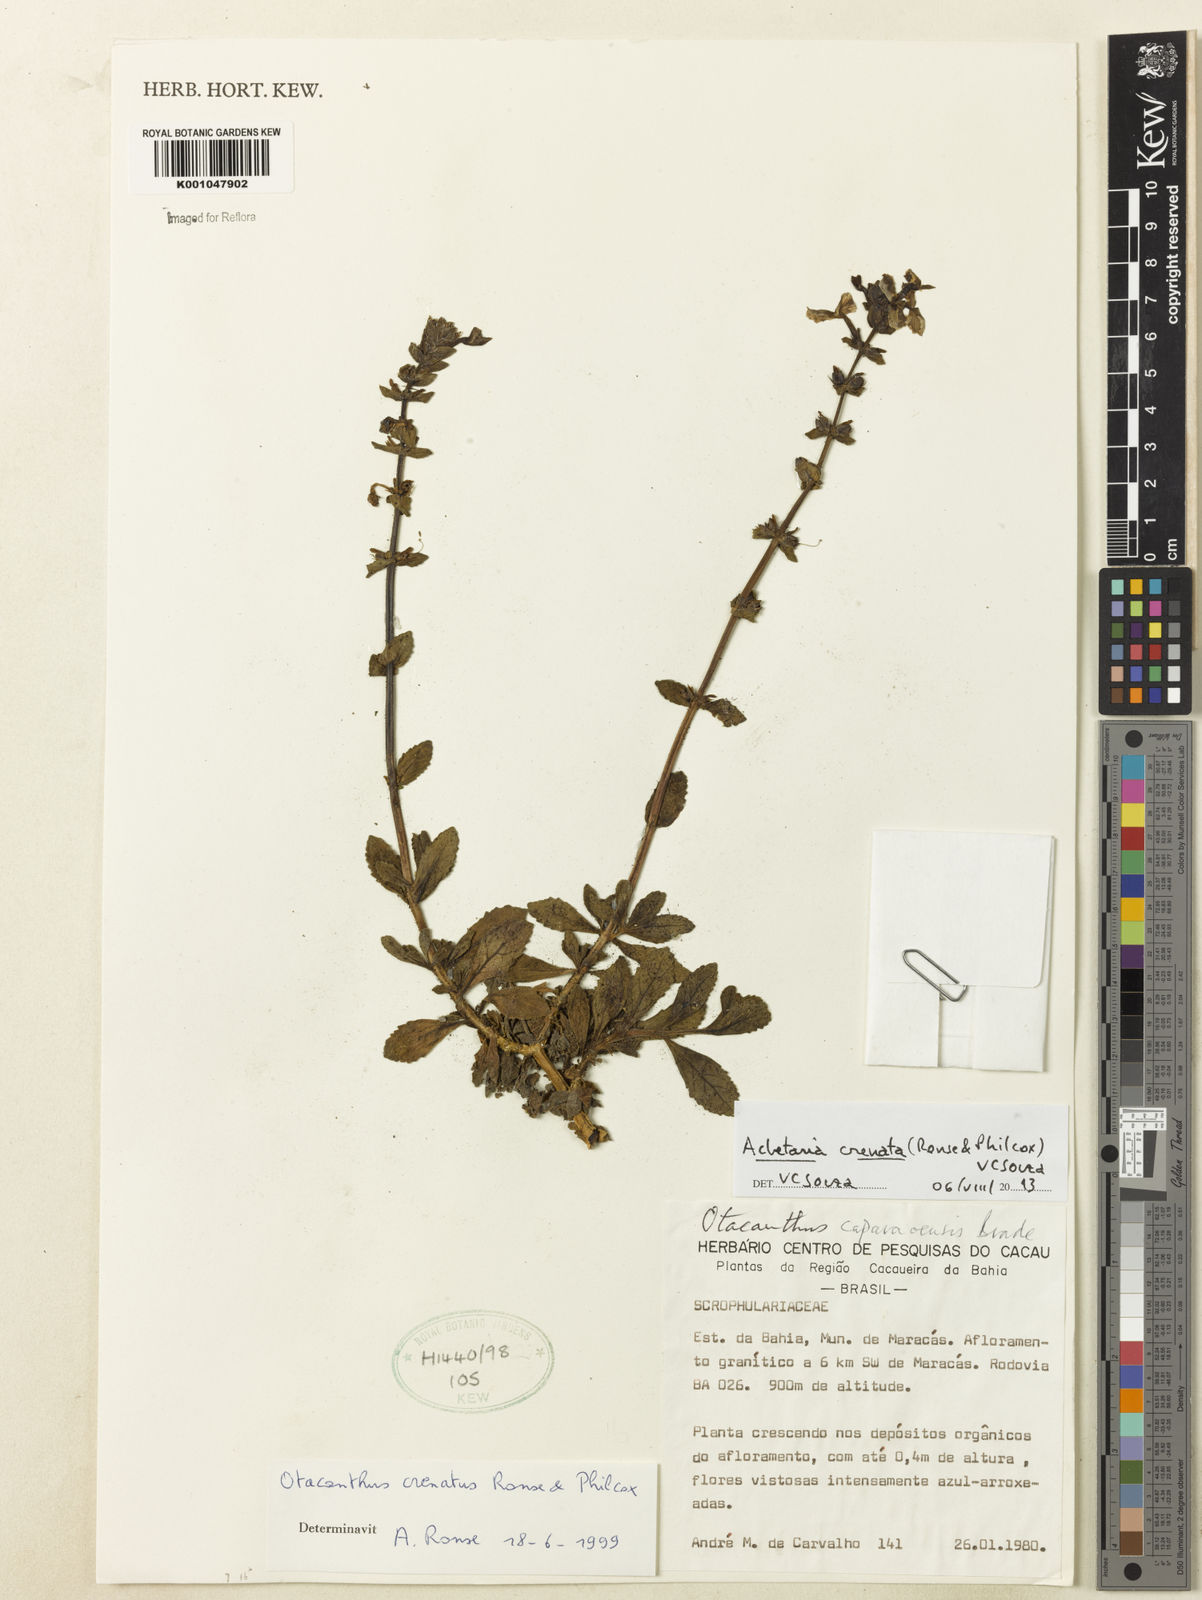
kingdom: Plantae
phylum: Tracheophyta
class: Magnoliopsida
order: Lamiales
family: Plantaginaceae
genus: Matourea
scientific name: Matourea crenata
